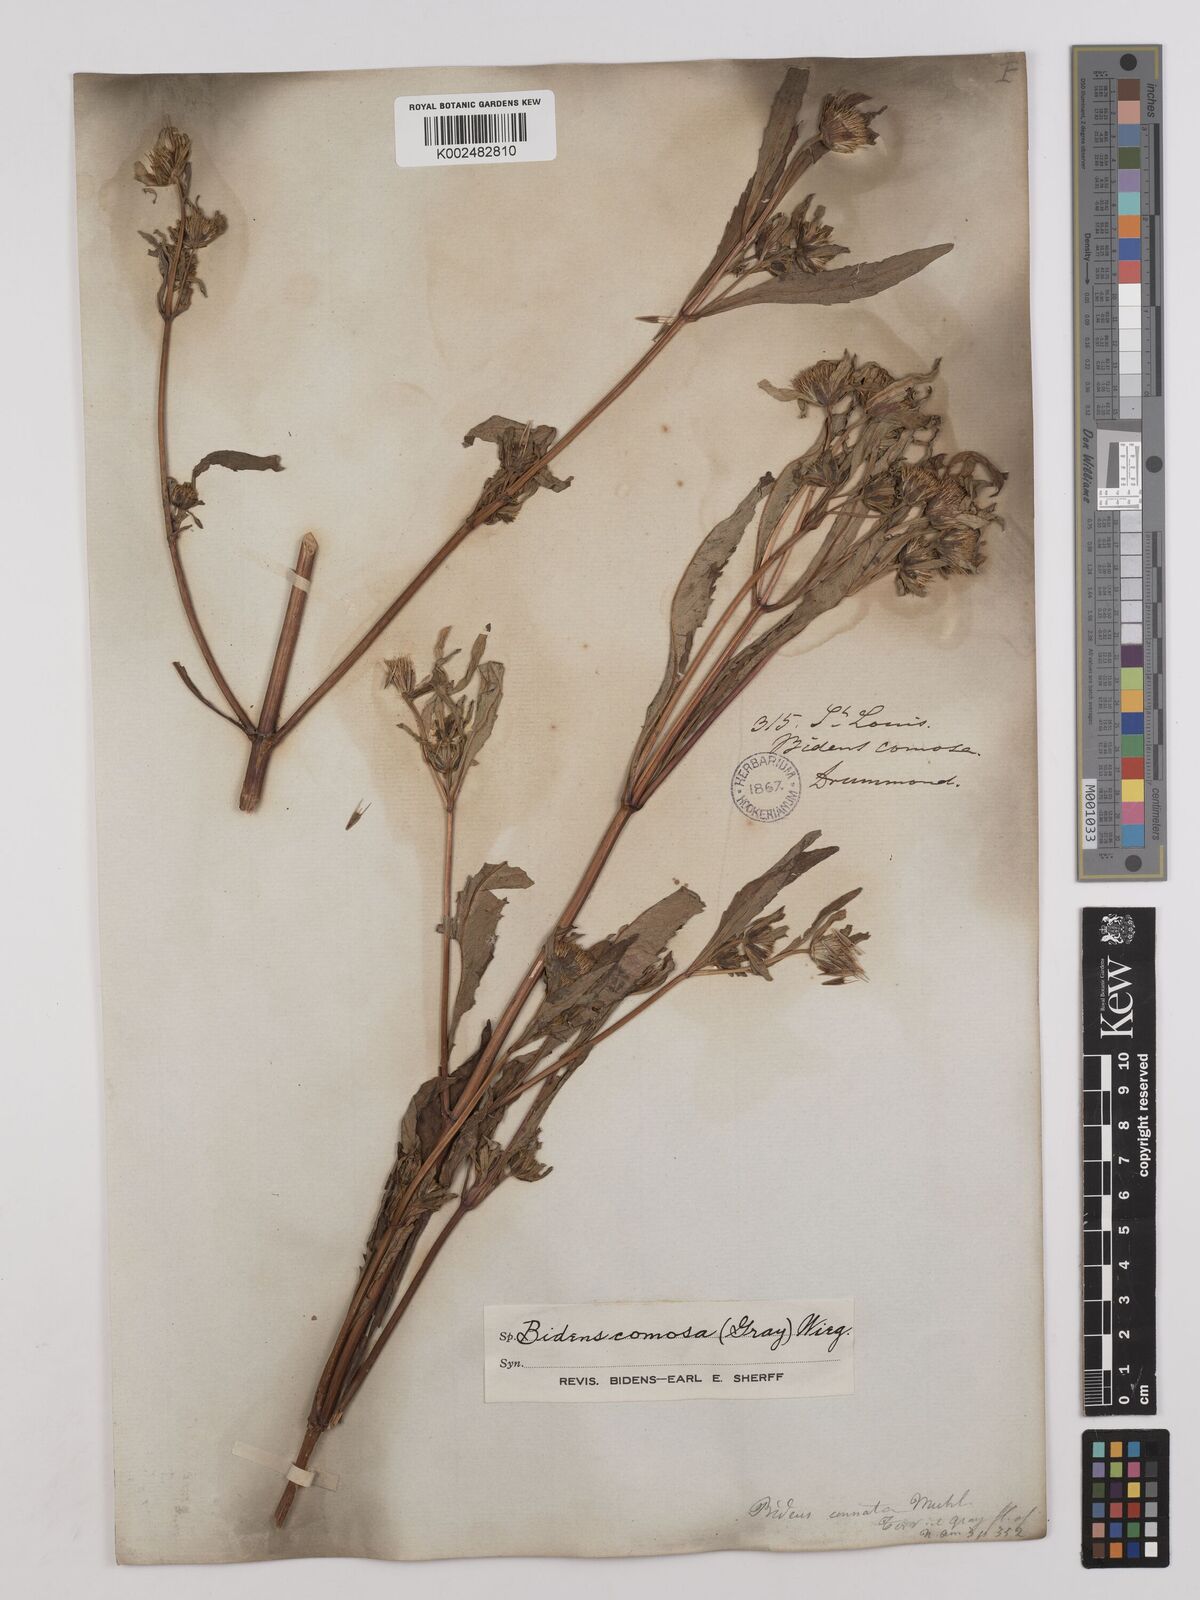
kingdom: Plantae
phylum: Tracheophyta
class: Magnoliopsida
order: Asterales
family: Asteraceae
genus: Bidens
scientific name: Bidens tripartita
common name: Trifid bur-marigold
